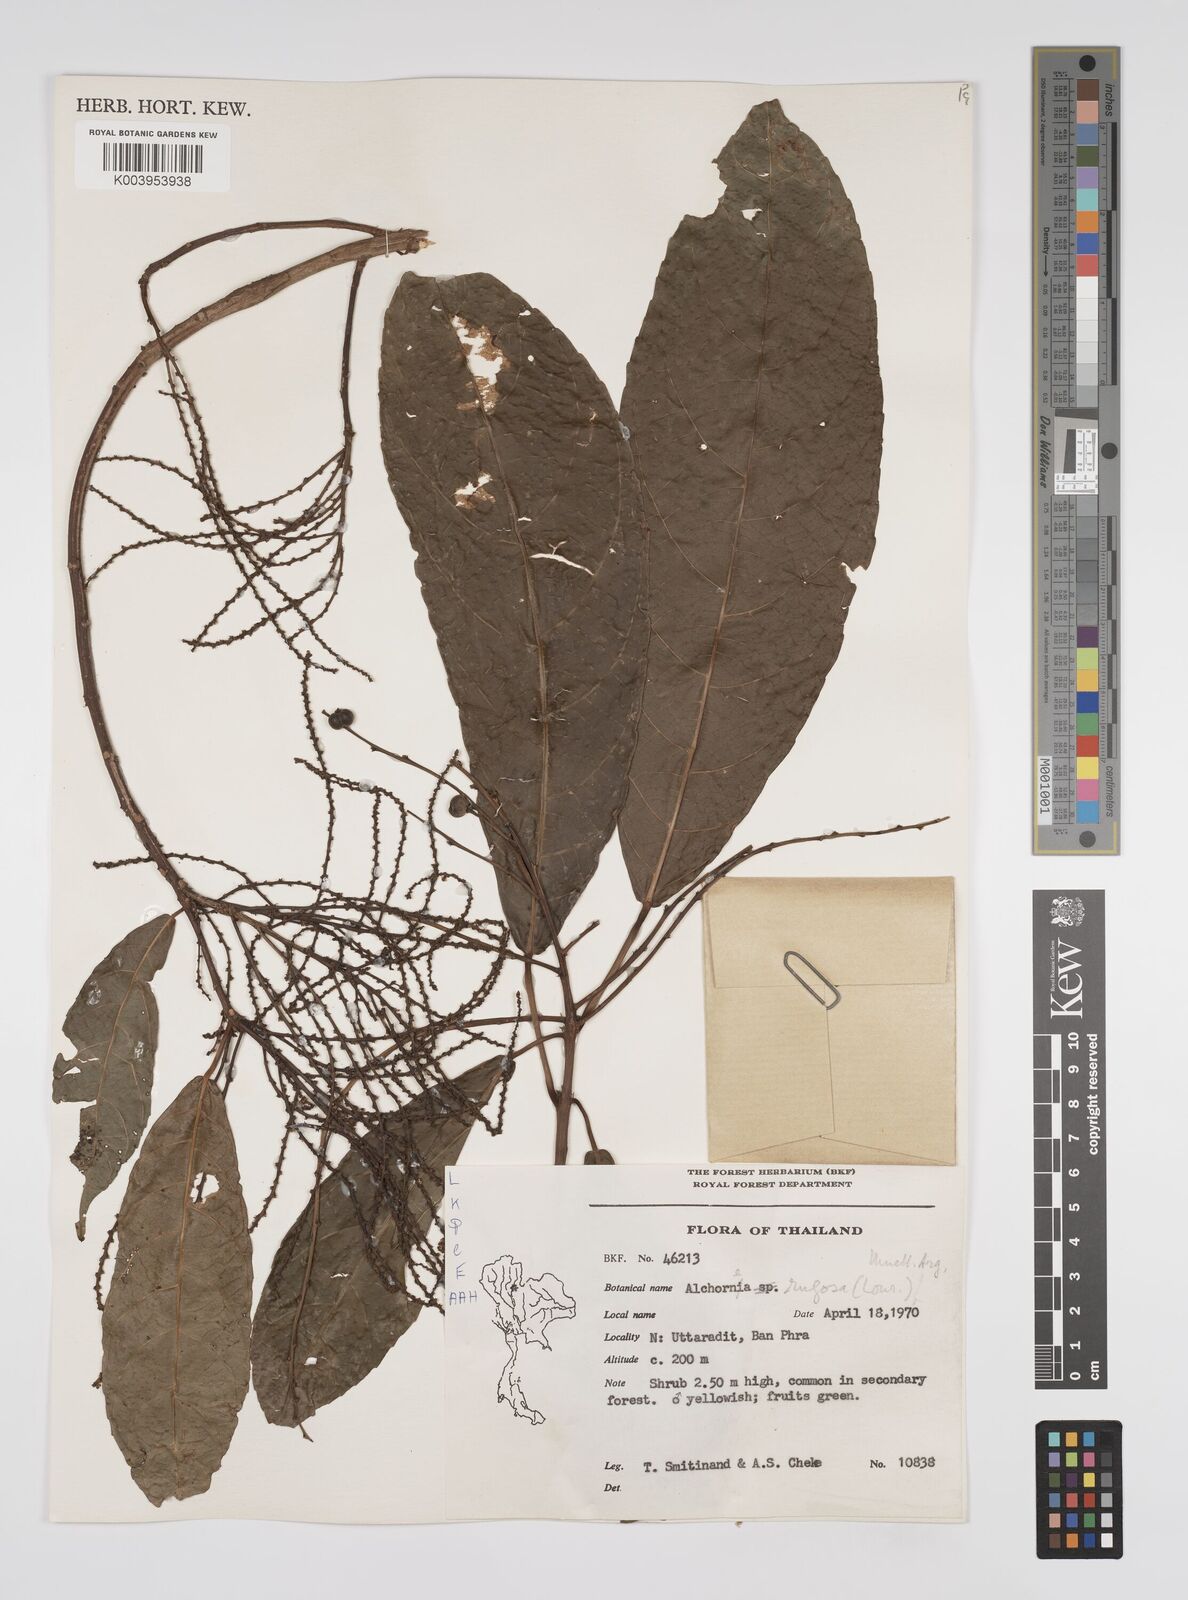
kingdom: Plantae
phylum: Tracheophyta
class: Magnoliopsida
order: Malpighiales
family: Euphorbiaceae
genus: Alchornea
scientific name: Alchornea rugosa
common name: Alchorntree
